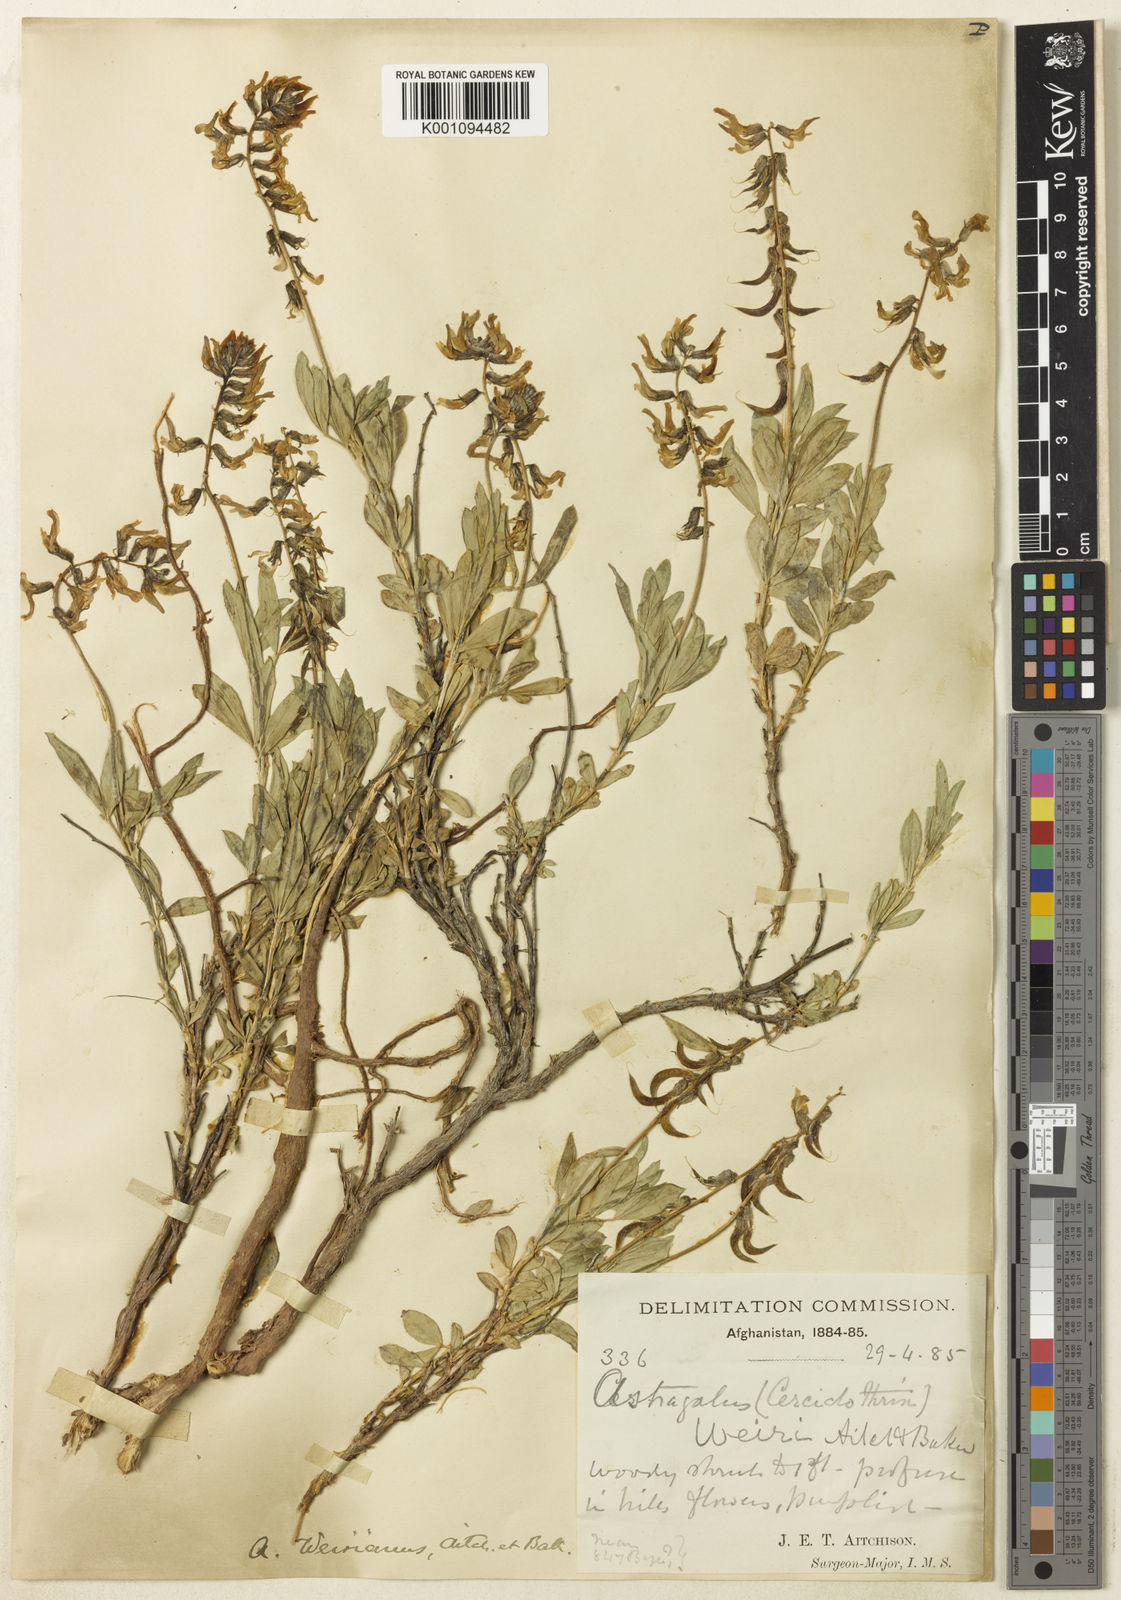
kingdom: Plantae
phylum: Tracheophyta
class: Magnoliopsida
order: Fabales
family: Fabaceae
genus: Astragalus
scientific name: Astragalus
